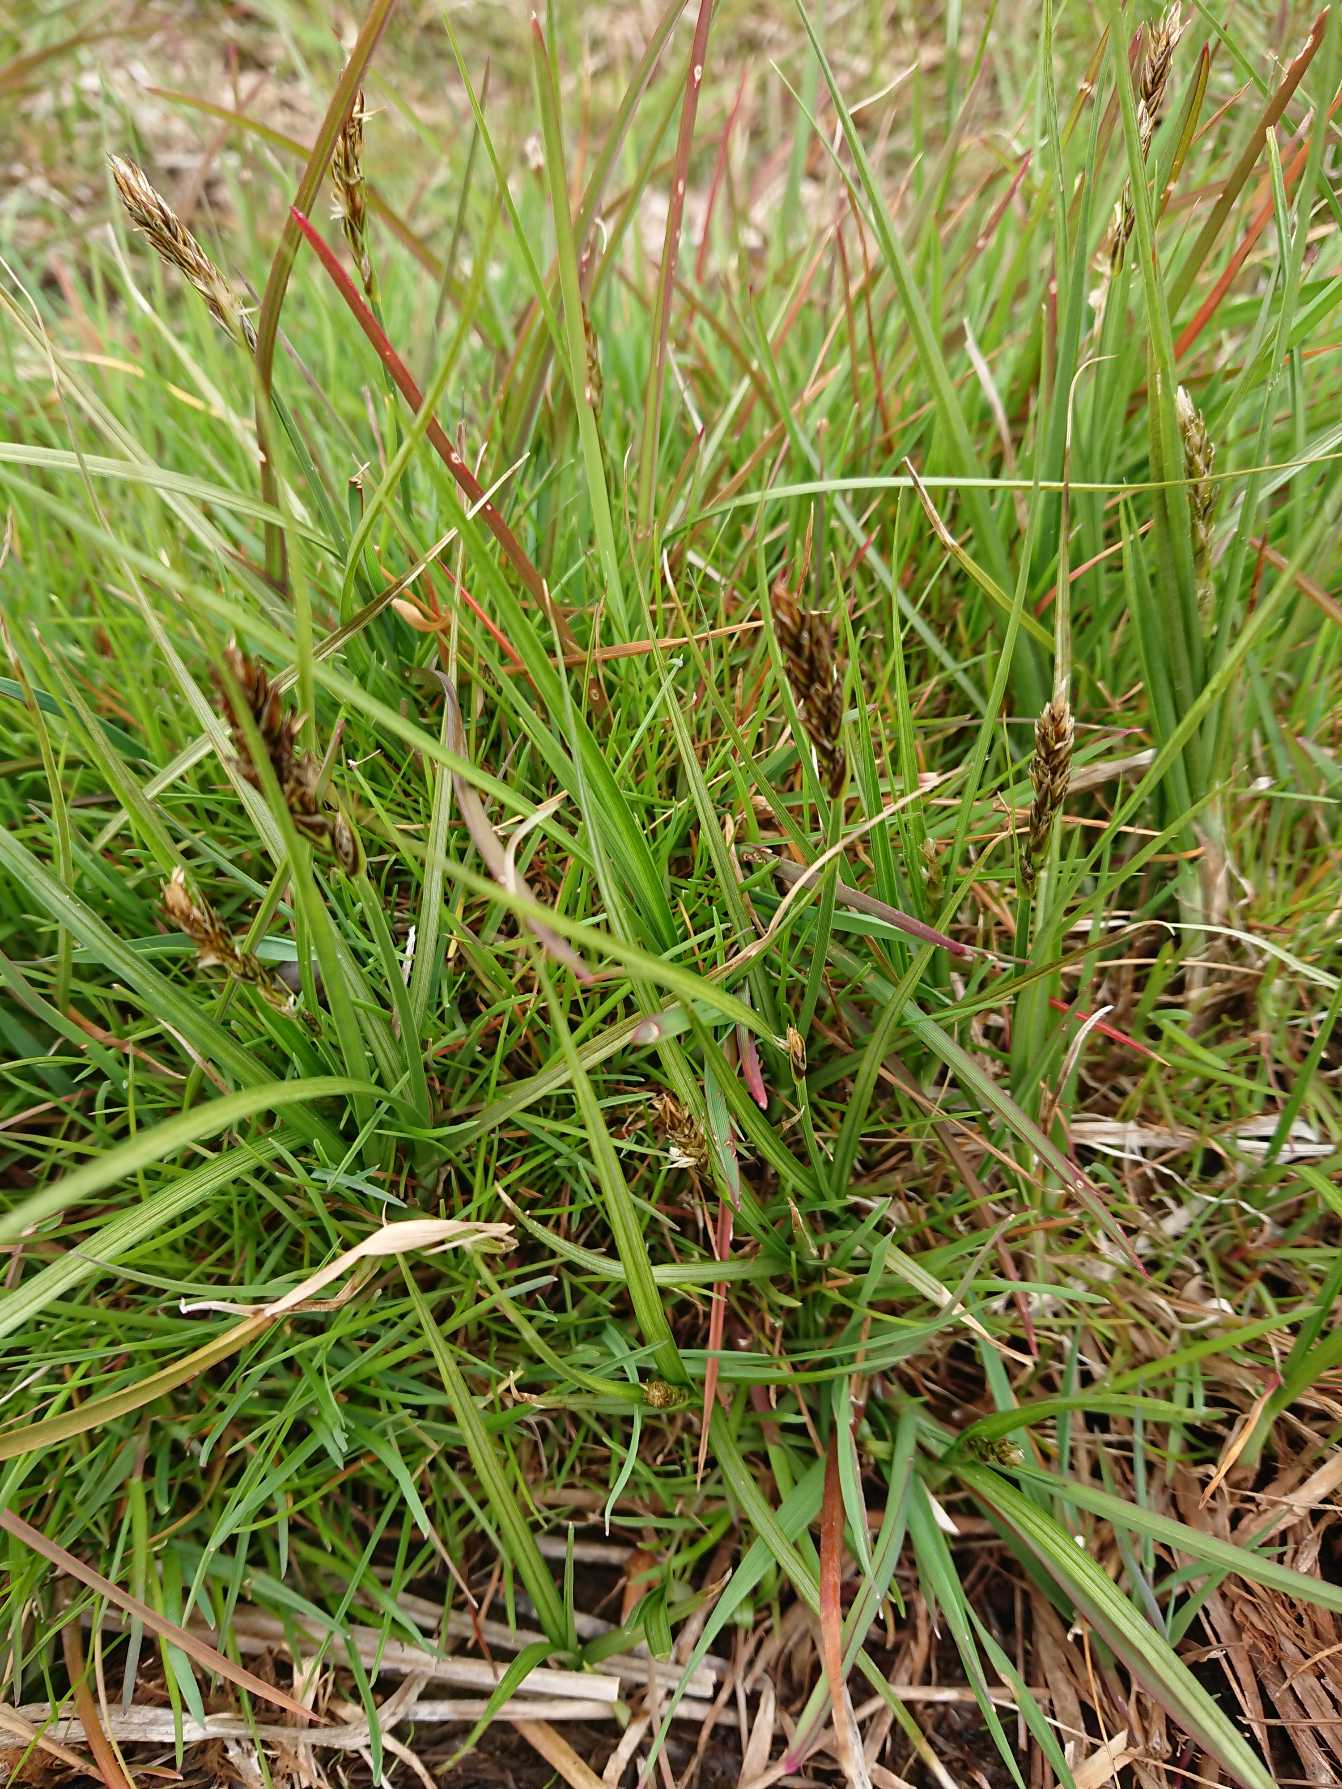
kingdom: Plantae
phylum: Tracheophyta
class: Liliopsida
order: Poales
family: Cyperaceae
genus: Carex
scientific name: Carex disticha
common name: Toradet star
